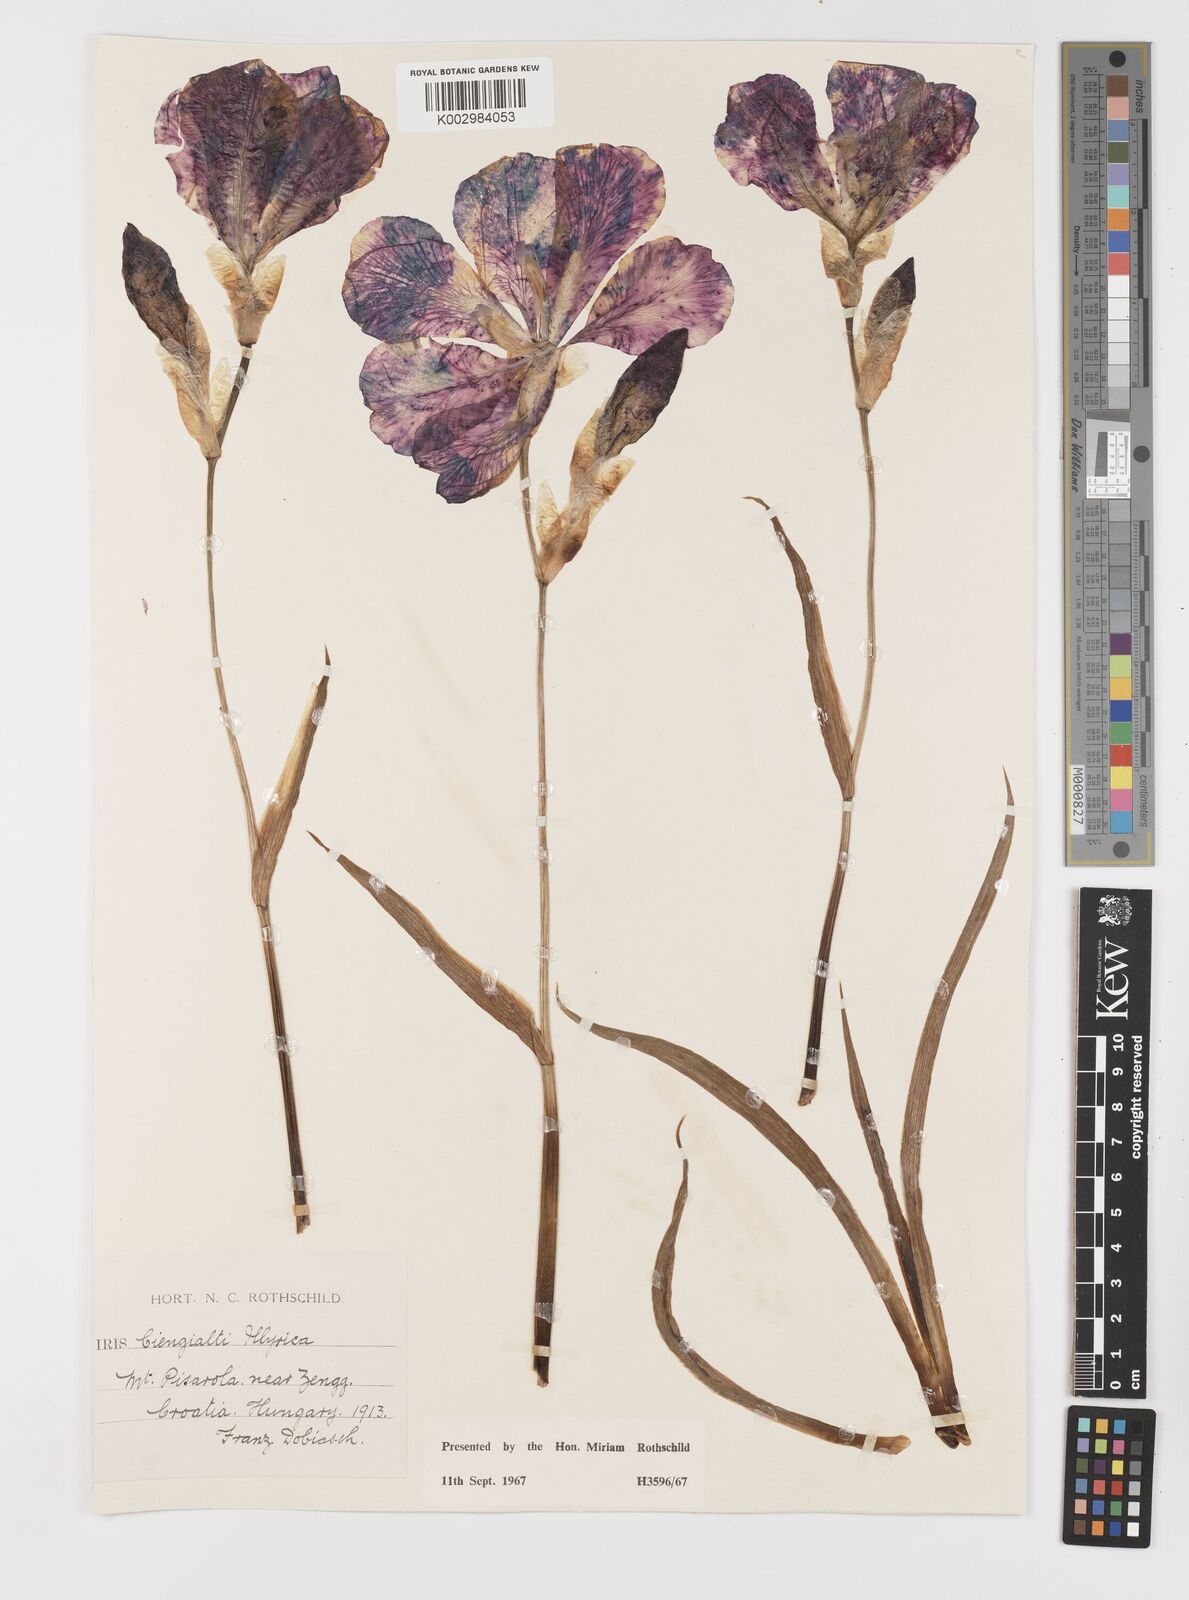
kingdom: Plantae
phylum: Tracheophyta
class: Liliopsida
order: Asparagales
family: Iridaceae
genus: Iris
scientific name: Iris pallida
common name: Sweet iris
